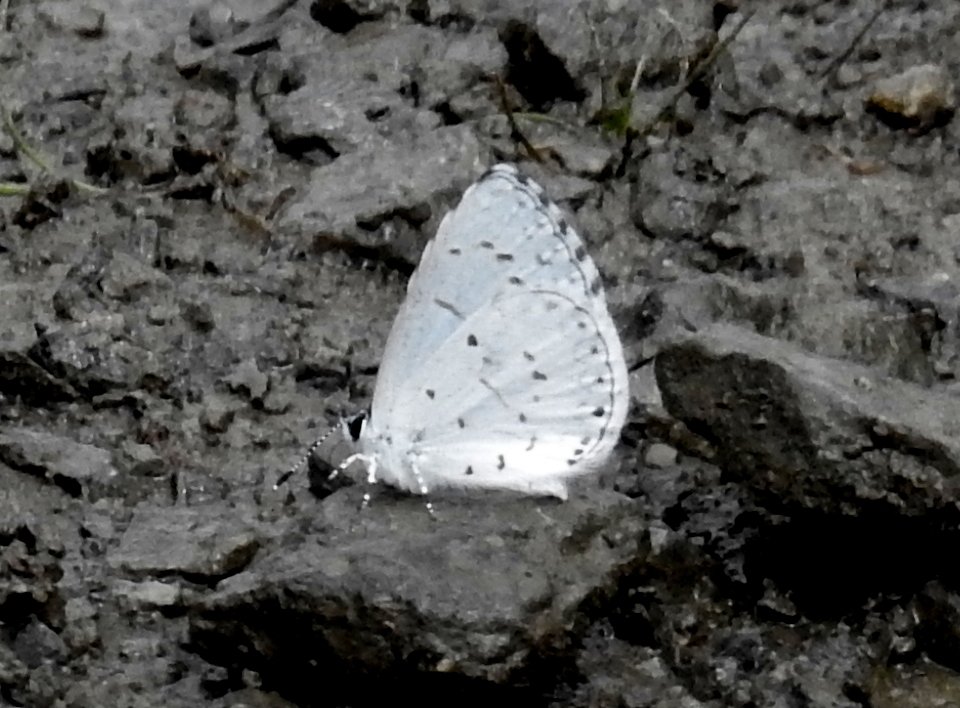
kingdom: Animalia
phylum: Arthropoda
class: Insecta
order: Lepidoptera
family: Lycaenidae
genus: Celastrina
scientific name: Celastrina
